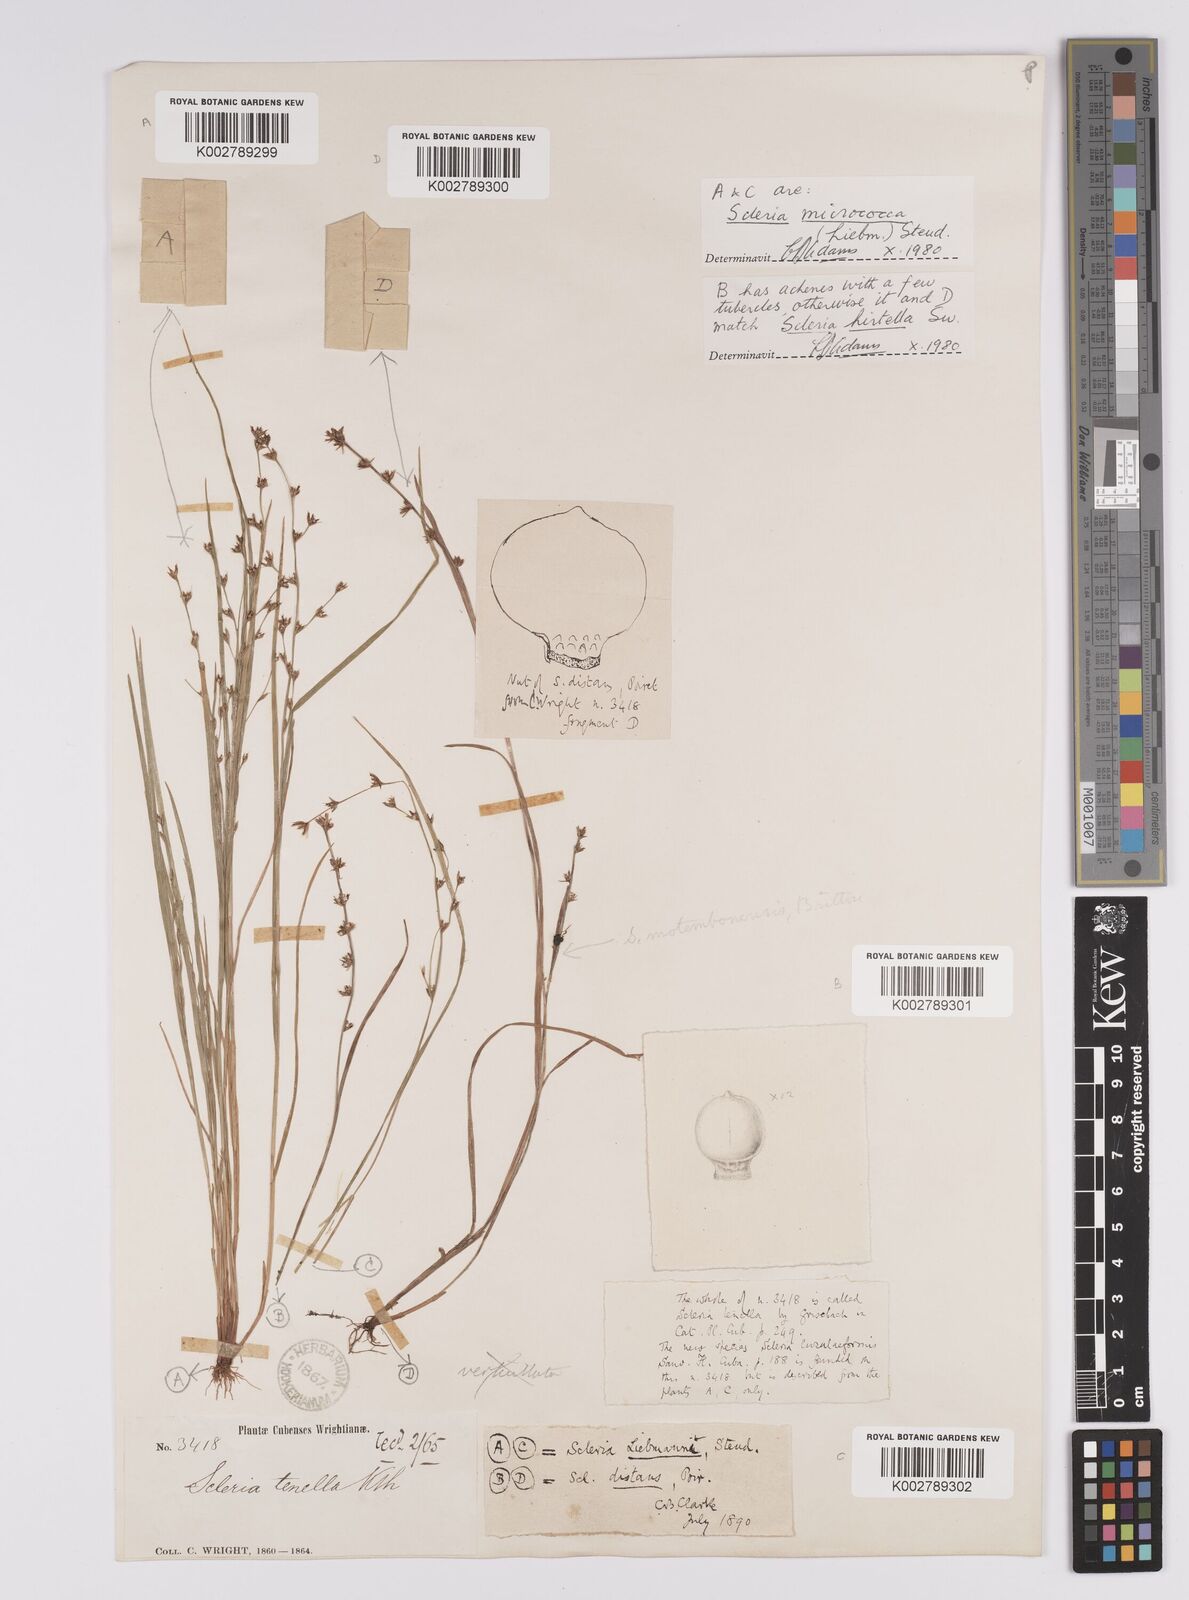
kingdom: Plantae
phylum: Tracheophyta
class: Liliopsida
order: Poales
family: Cyperaceae
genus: Scleria
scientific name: Scleria hirtella
